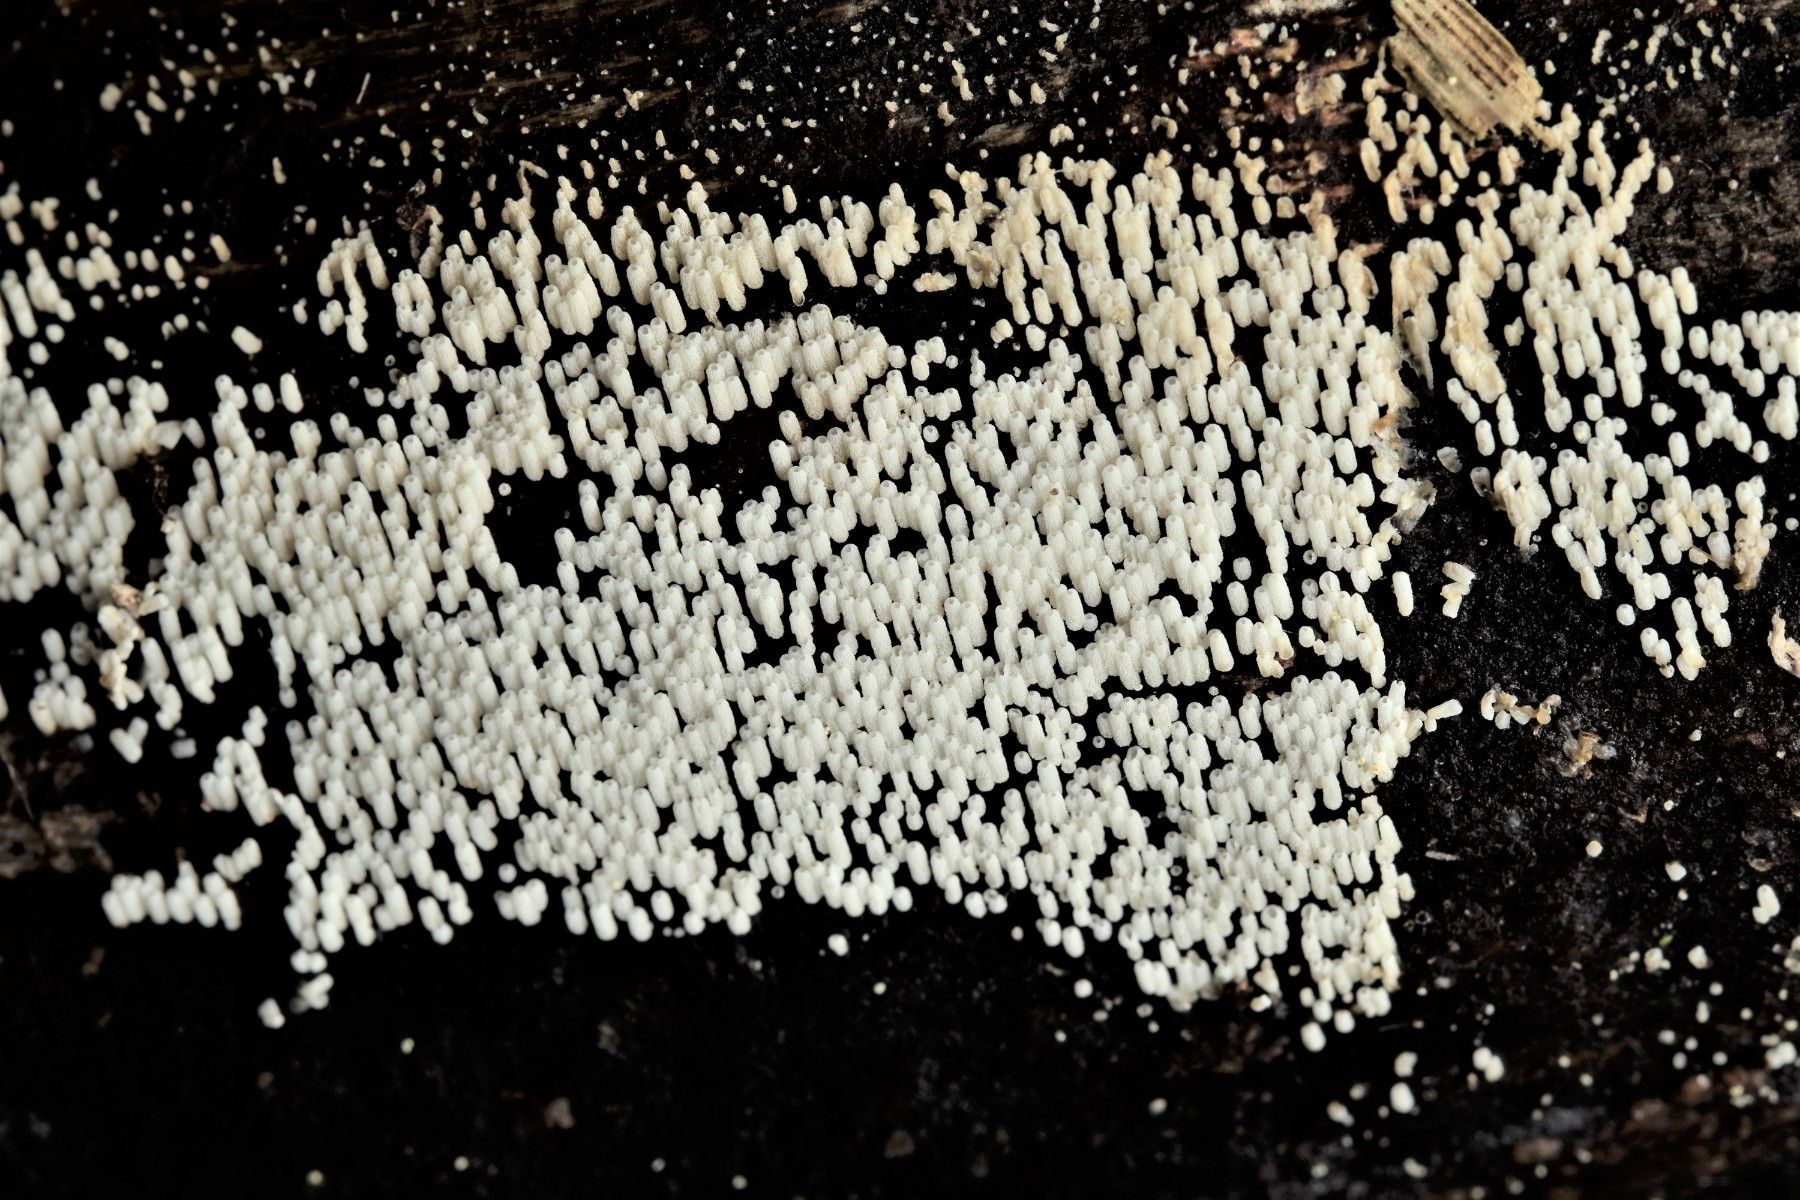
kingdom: Fungi
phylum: Basidiomycota
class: Agaricomycetes
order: Agaricales
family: Marasmiaceae
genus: Henningsomyces
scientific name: Henningsomyces puber
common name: dunet hængerør
